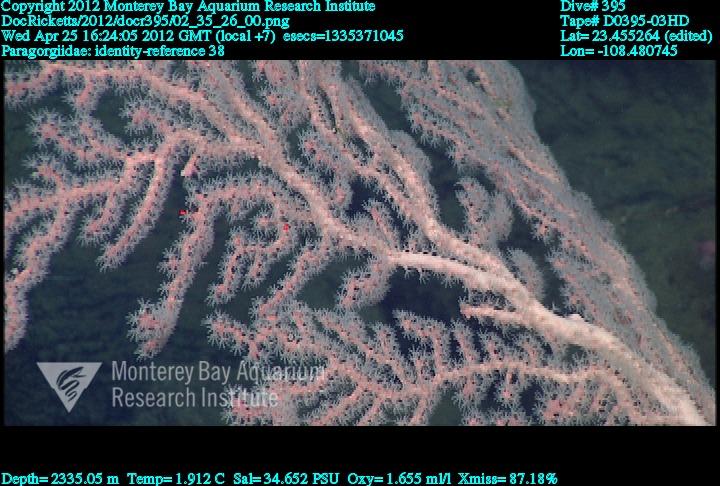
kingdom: Animalia
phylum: Cnidaria
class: Anthozoa
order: Scleralcyonacea
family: Coralliidae
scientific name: Coralliidae
